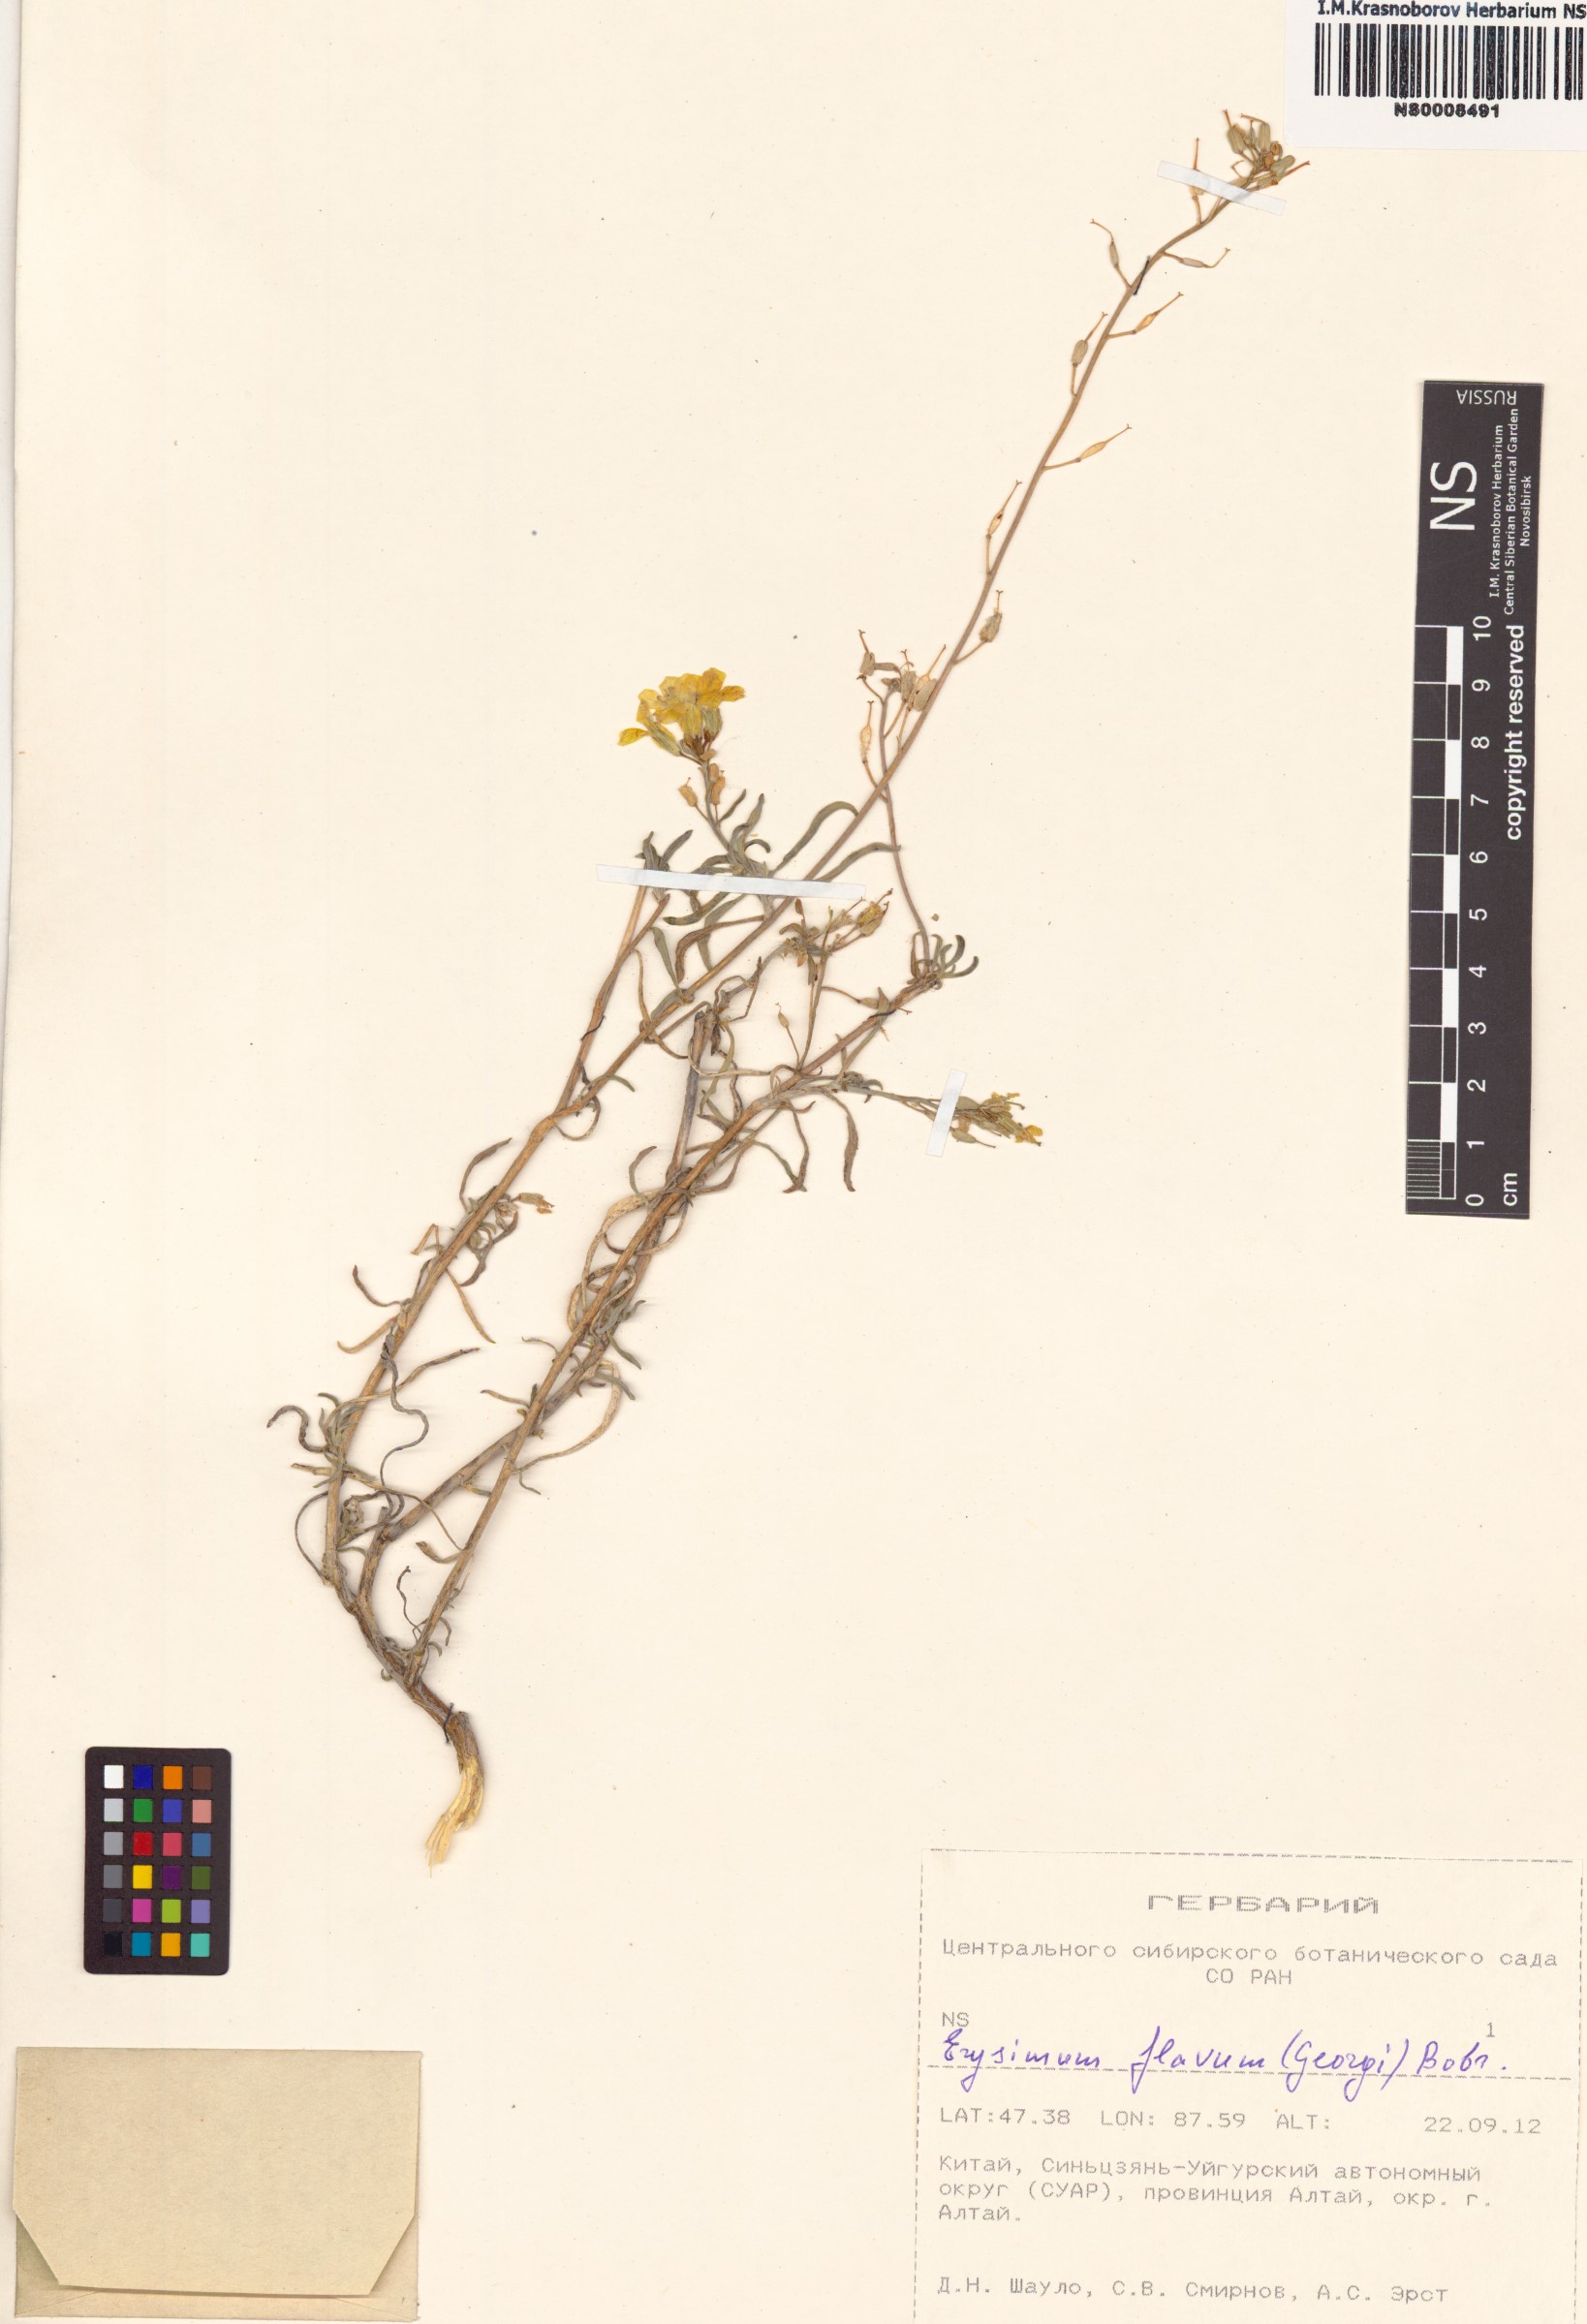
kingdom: Plantae
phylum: Tracheophyta
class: Magnoliopsida
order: Brassicales
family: Brassicaceae
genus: Erysimum
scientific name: Erysimum flavum
